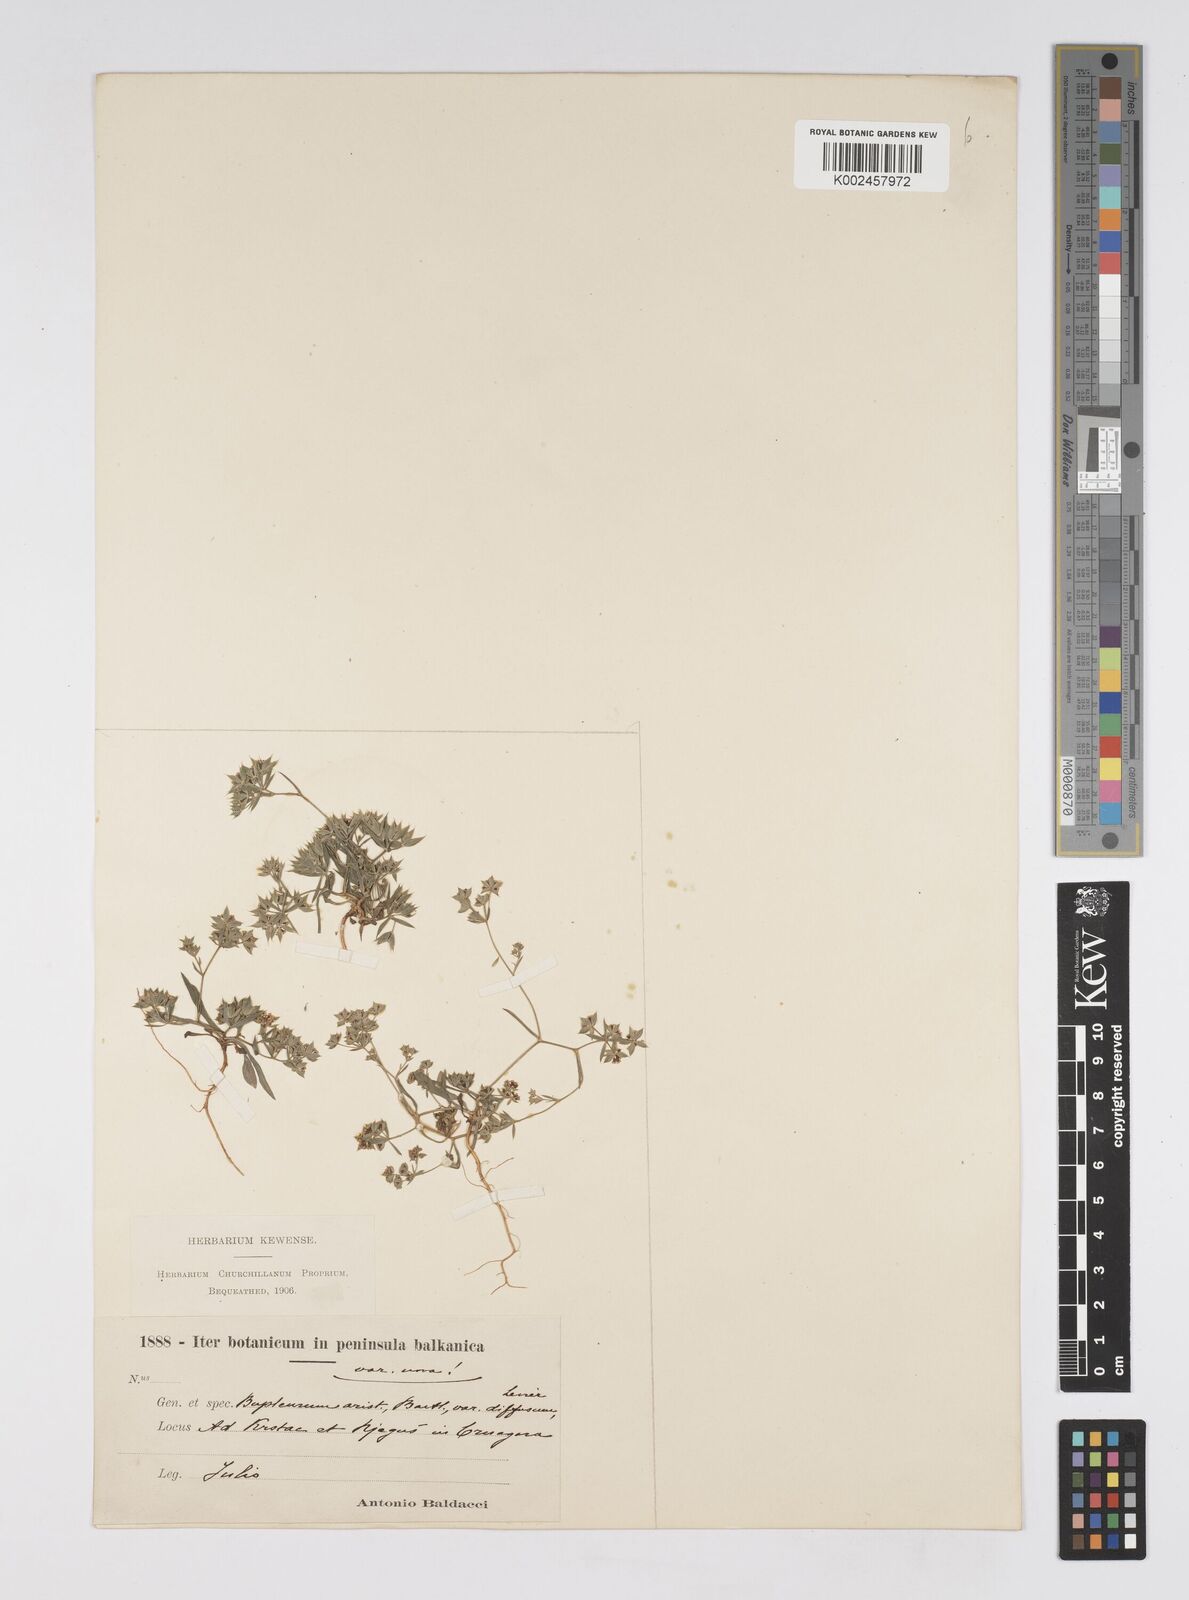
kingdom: Plantae
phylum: Tracheophyta
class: Magnoliopsida
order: Apiales
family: Apiaceae
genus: Bupleurum
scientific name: Bupleurum glumaceum
